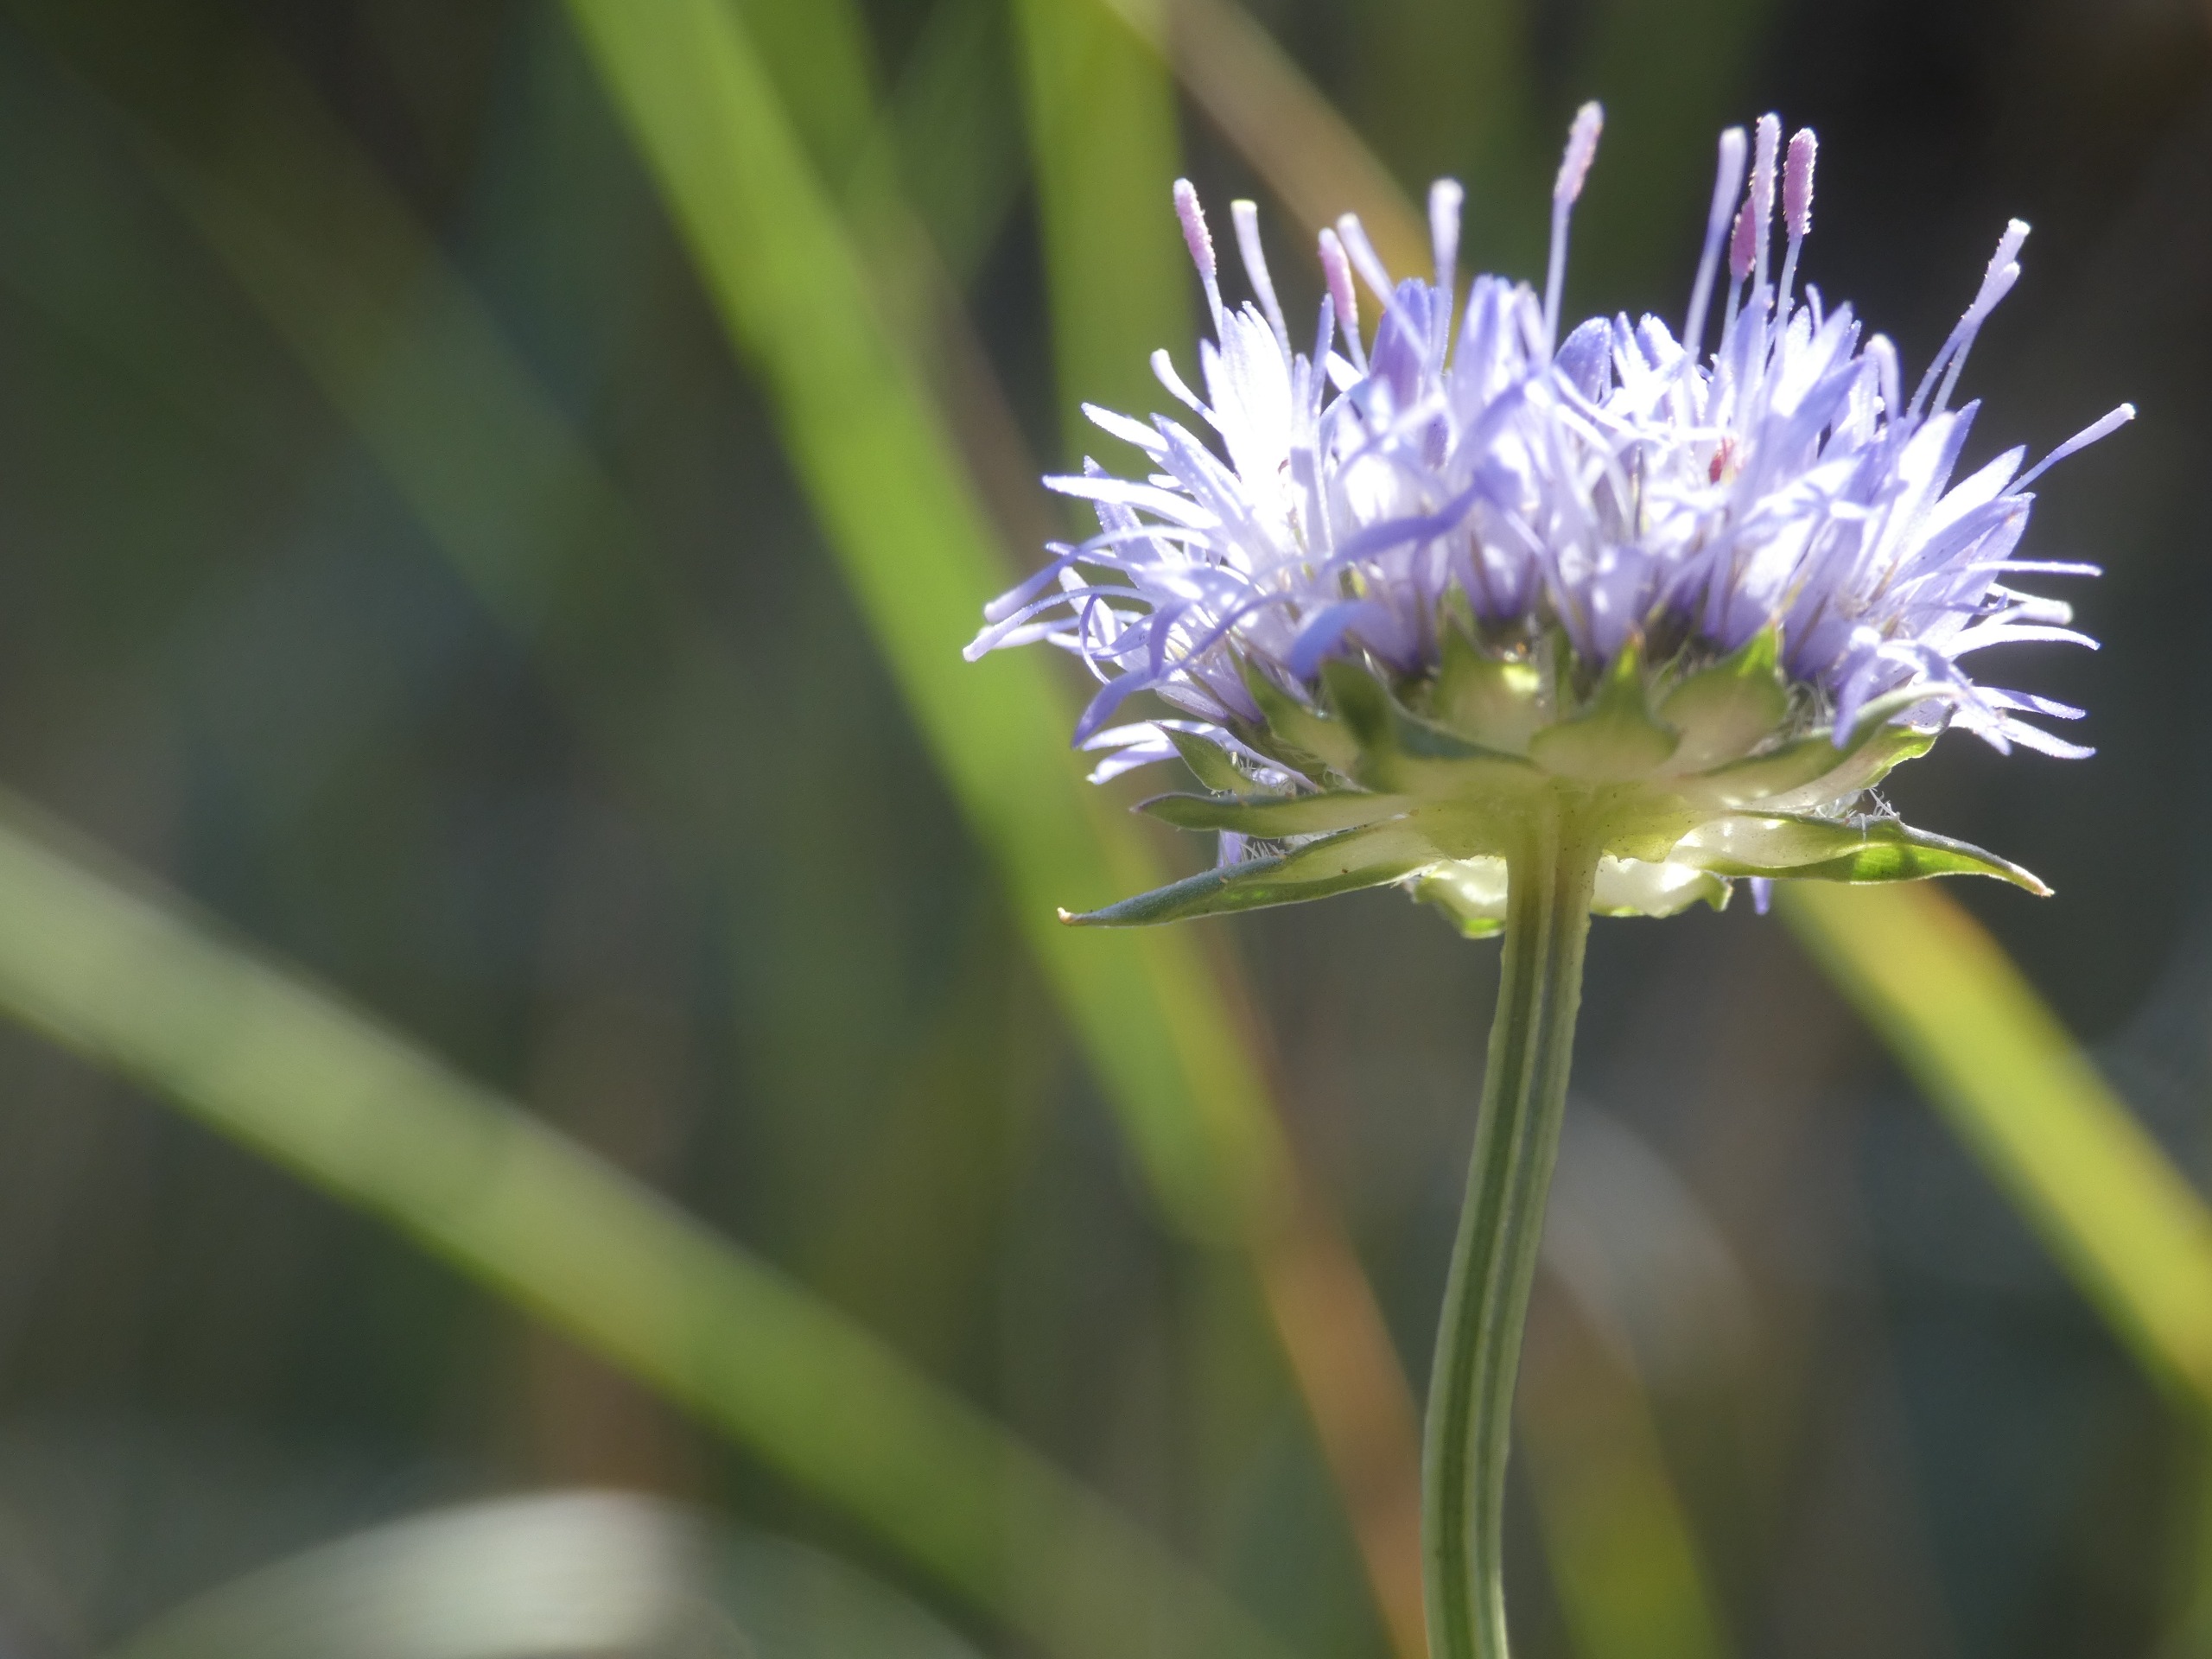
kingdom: Plantae
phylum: Tracheophyta
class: Magnoliopsida
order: Asterales
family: Campanulaceae
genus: Jasione
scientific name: Jasione montana
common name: Blåmunke
